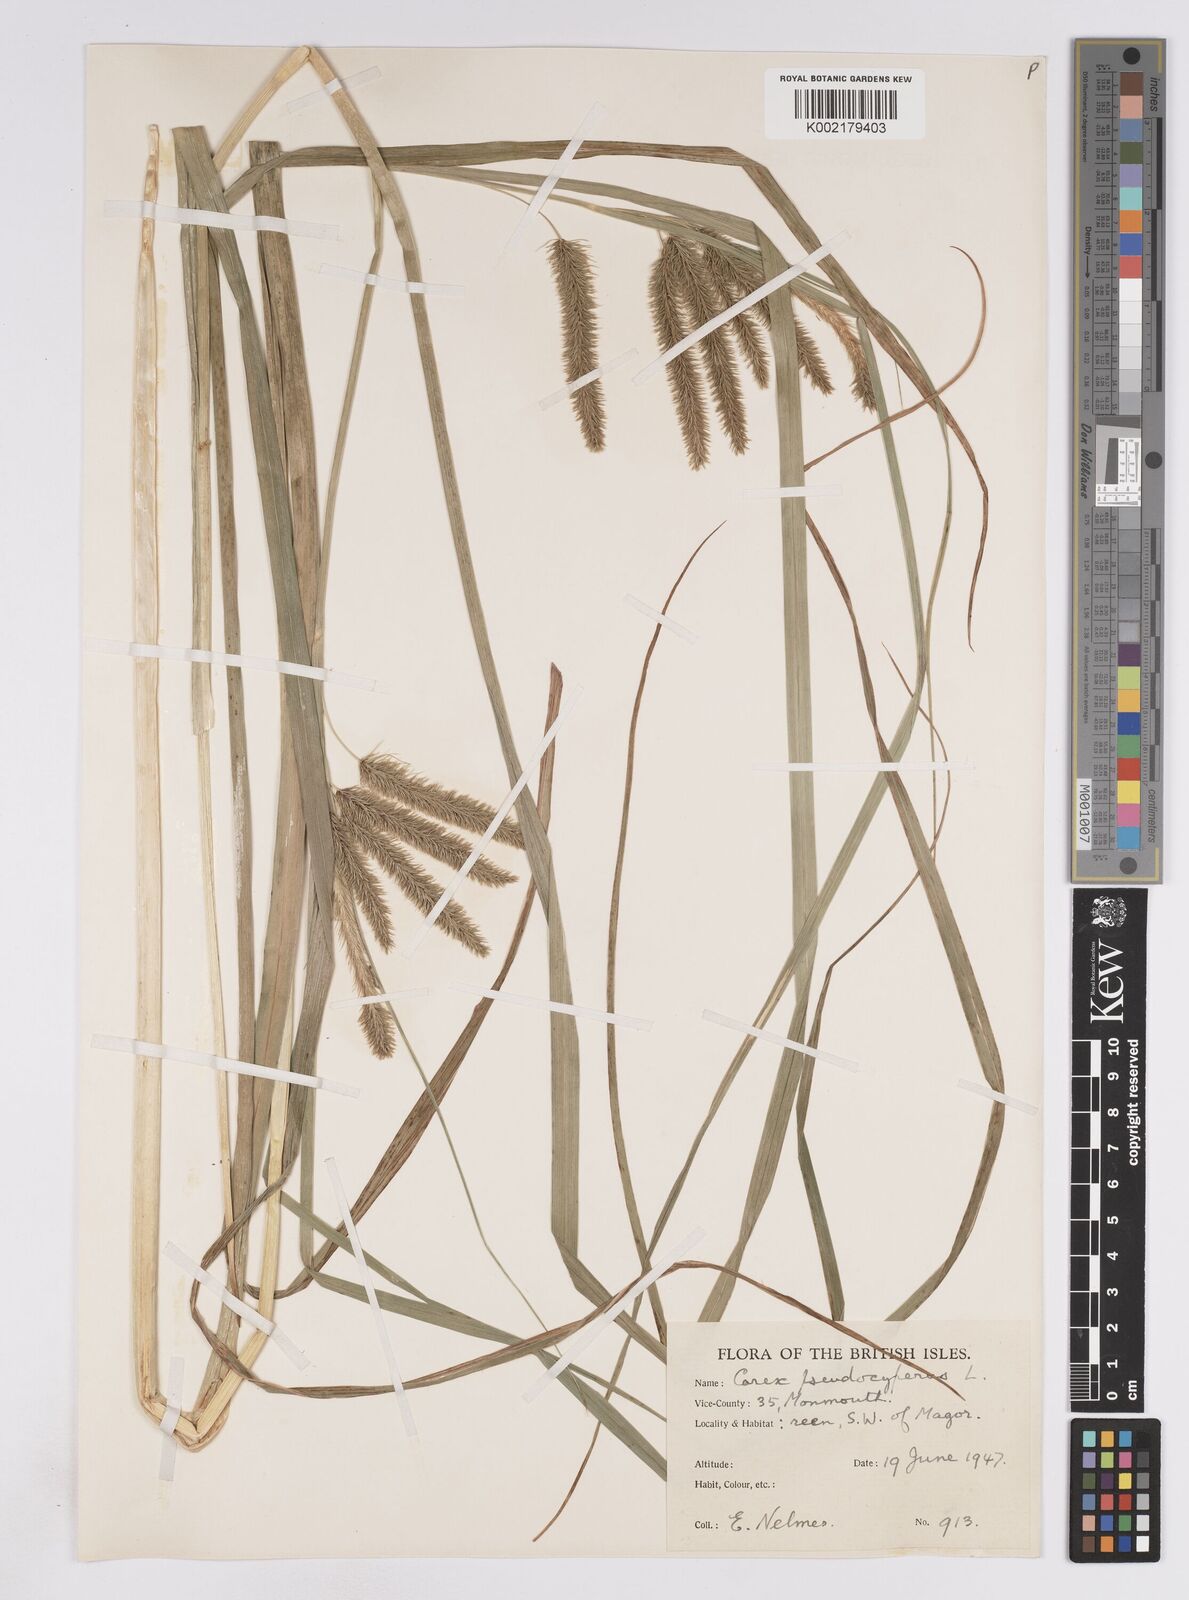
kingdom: Plantae
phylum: Tracheophyta
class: Liliopsida
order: Poales
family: Cyperaceae
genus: Carex
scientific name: Carex pseudocyperus
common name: Cyperus sedge
